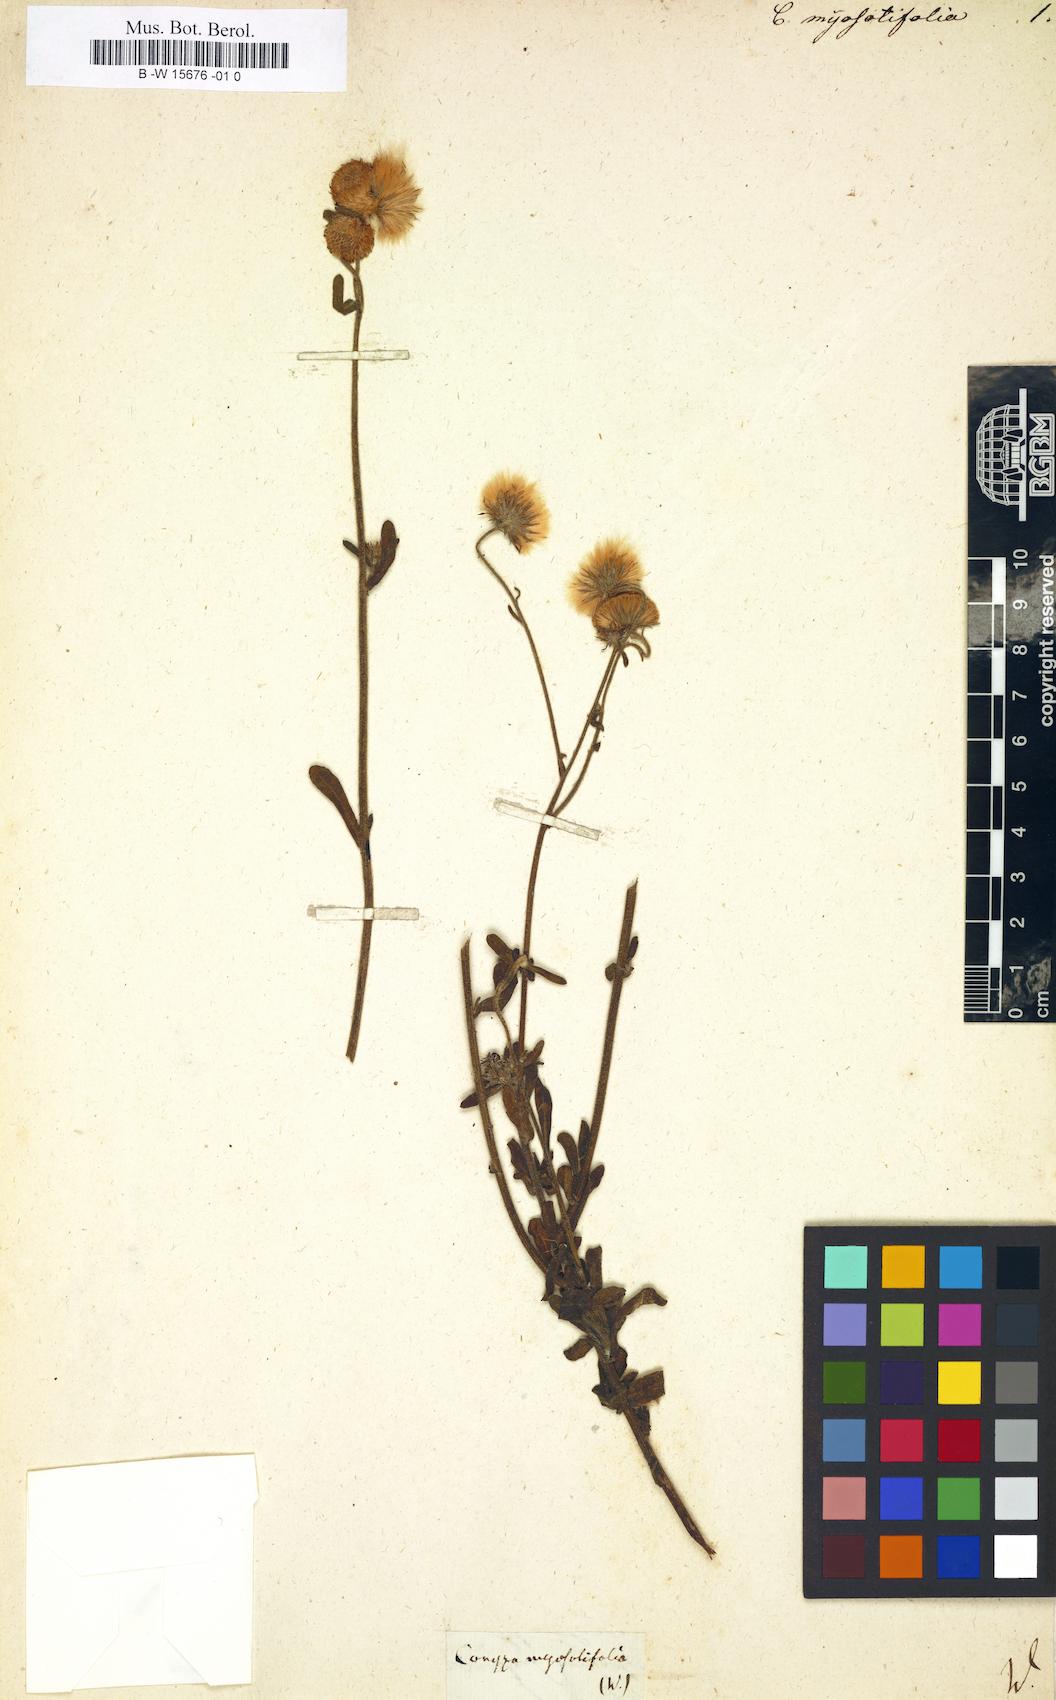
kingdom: Plantae
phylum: Tracheophyta
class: Magnoliopsida
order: Asterales
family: Asteraceae
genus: Erigeron
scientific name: Erigeron primulifolius
